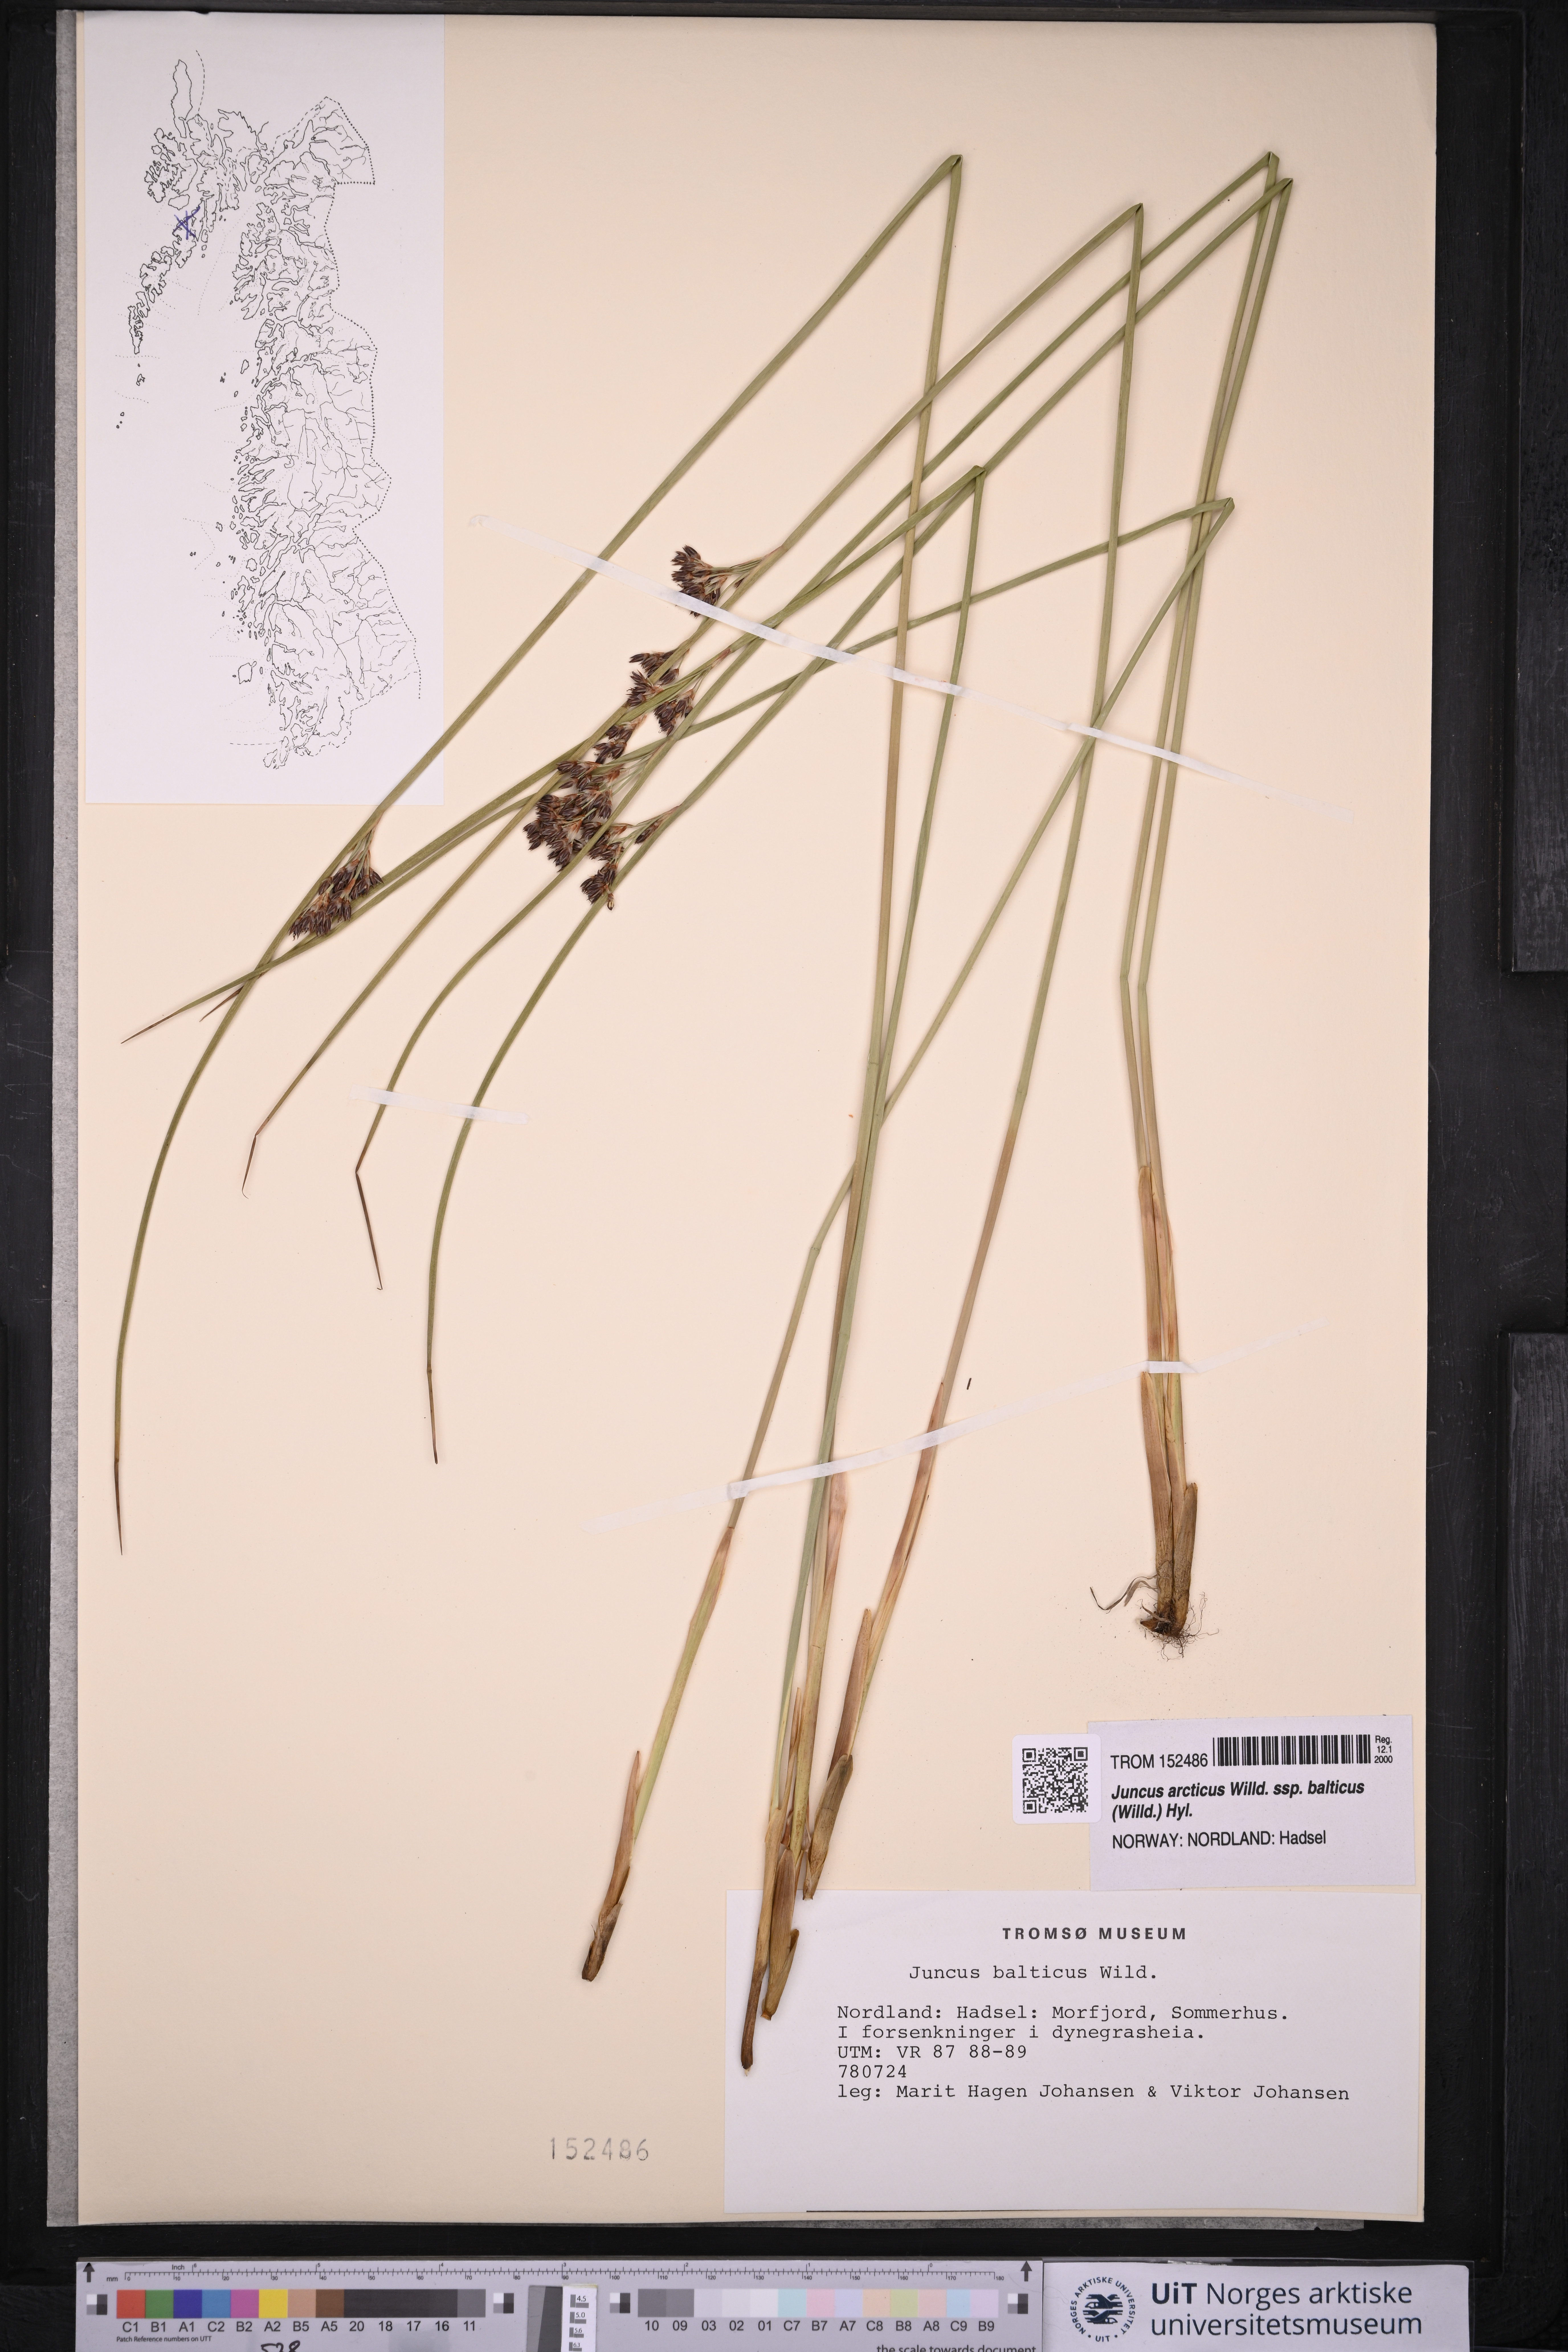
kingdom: Plantae
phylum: Tracheophyta
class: Liliopsida
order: Poales
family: Juncaceae
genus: Juncus
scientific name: Juncus balticus
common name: Baltic rush
